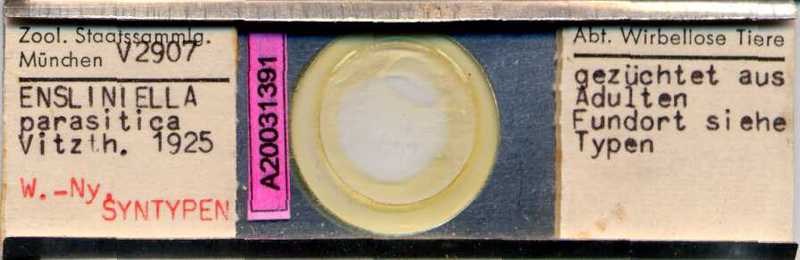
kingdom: Animalia
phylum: Arthropoda
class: Arachnida
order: Sarcoptiformes
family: Winterschmidtiidae
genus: Ensliniella
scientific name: Ensliniella parasitica
